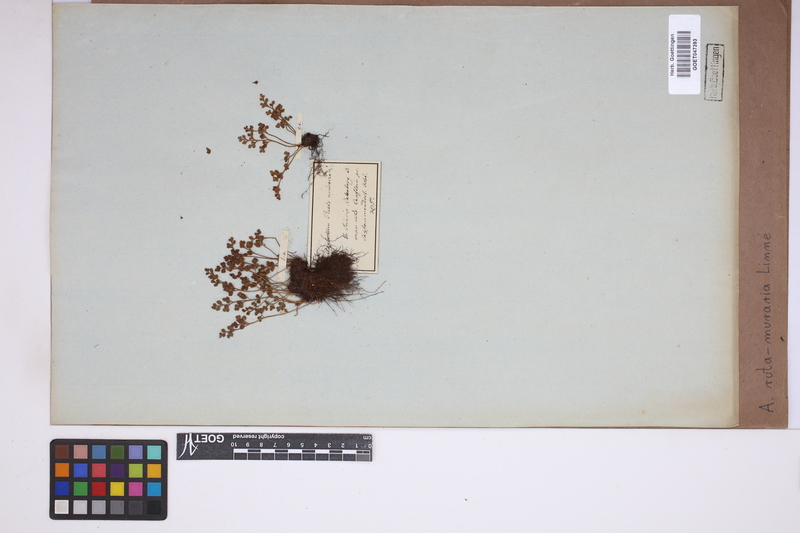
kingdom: Plantae
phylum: Tracheophyta
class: Polypodiopsida
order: Polypodiales
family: Aspleniaceae
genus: Asplenium
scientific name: Asplenium ruta-muraria
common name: Wall-rue
